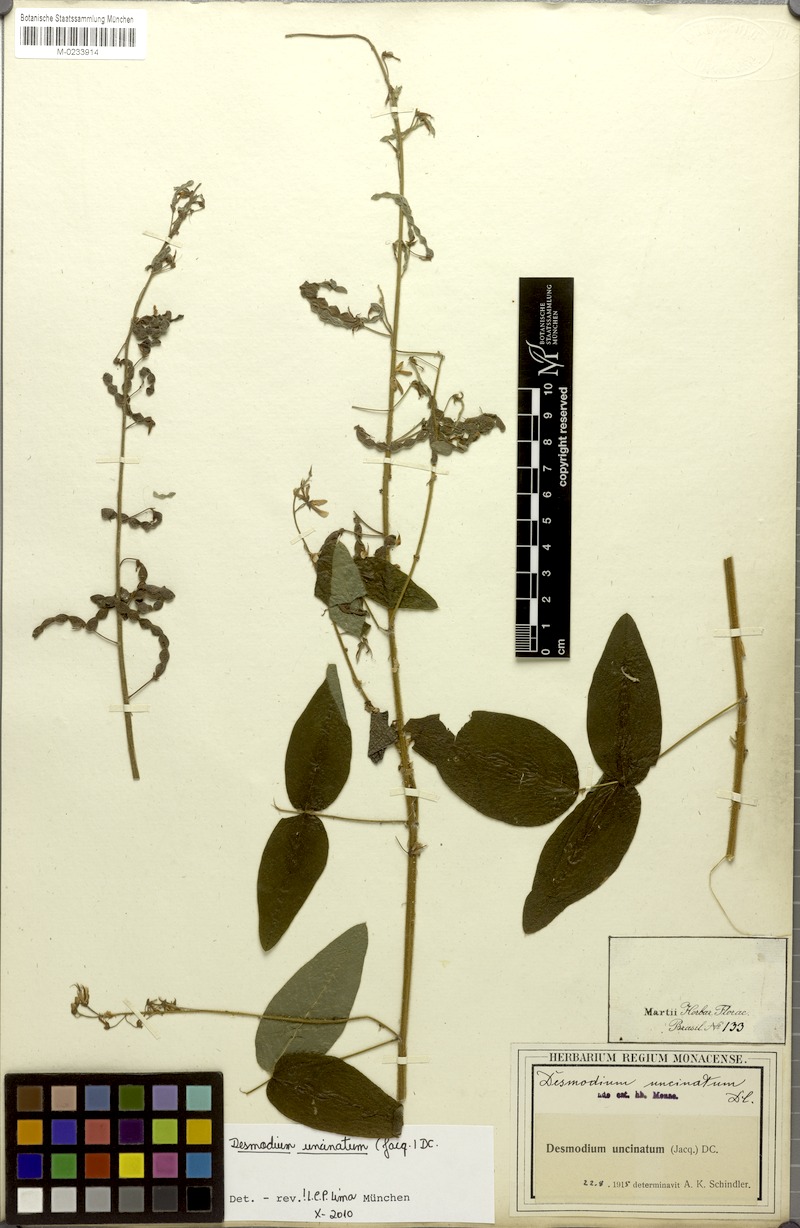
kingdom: Plantae
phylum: Tracheophyta
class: Magnoliopsida
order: Fabales
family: Fabaceae
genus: Desmodium
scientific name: Desmodium uncinatum
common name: Silverleaf desmodium
